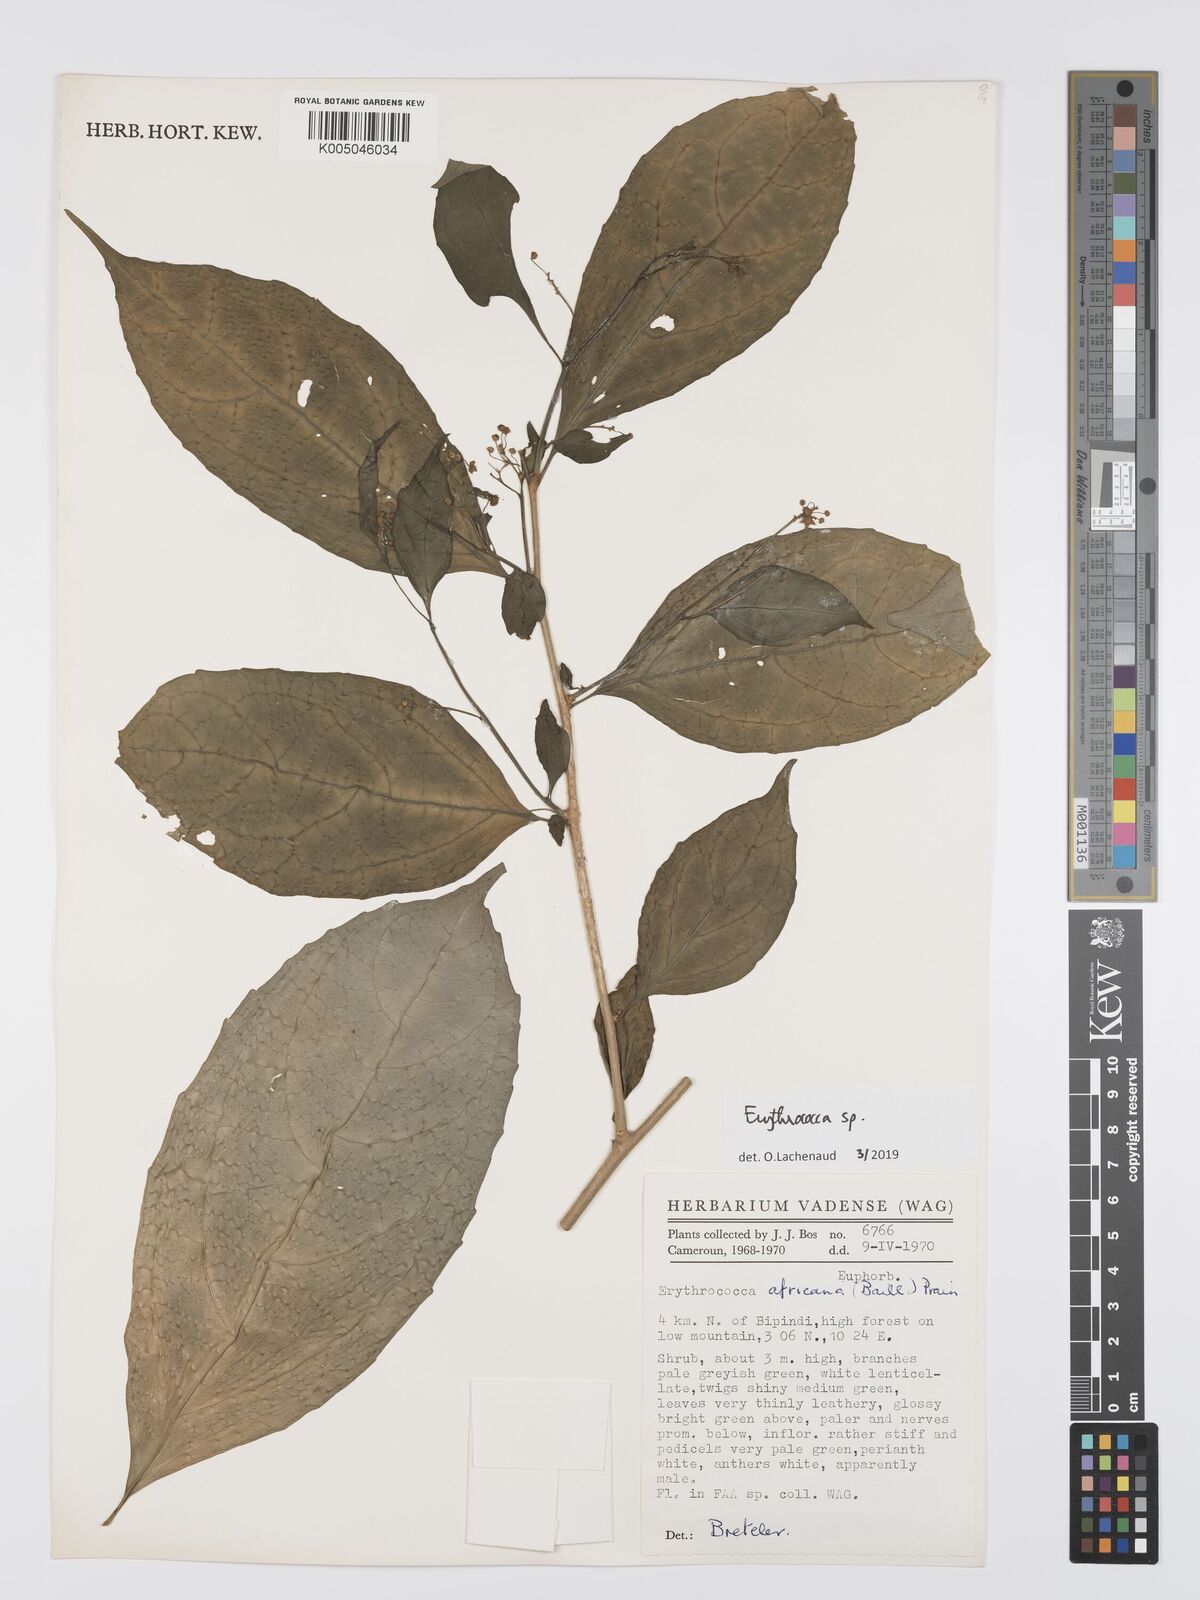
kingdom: Plantae
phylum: Tracheophyta
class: Magnoliopsida
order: Malpighiales
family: Euphorbiaceae
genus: Erythrococca
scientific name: Erythrococca
